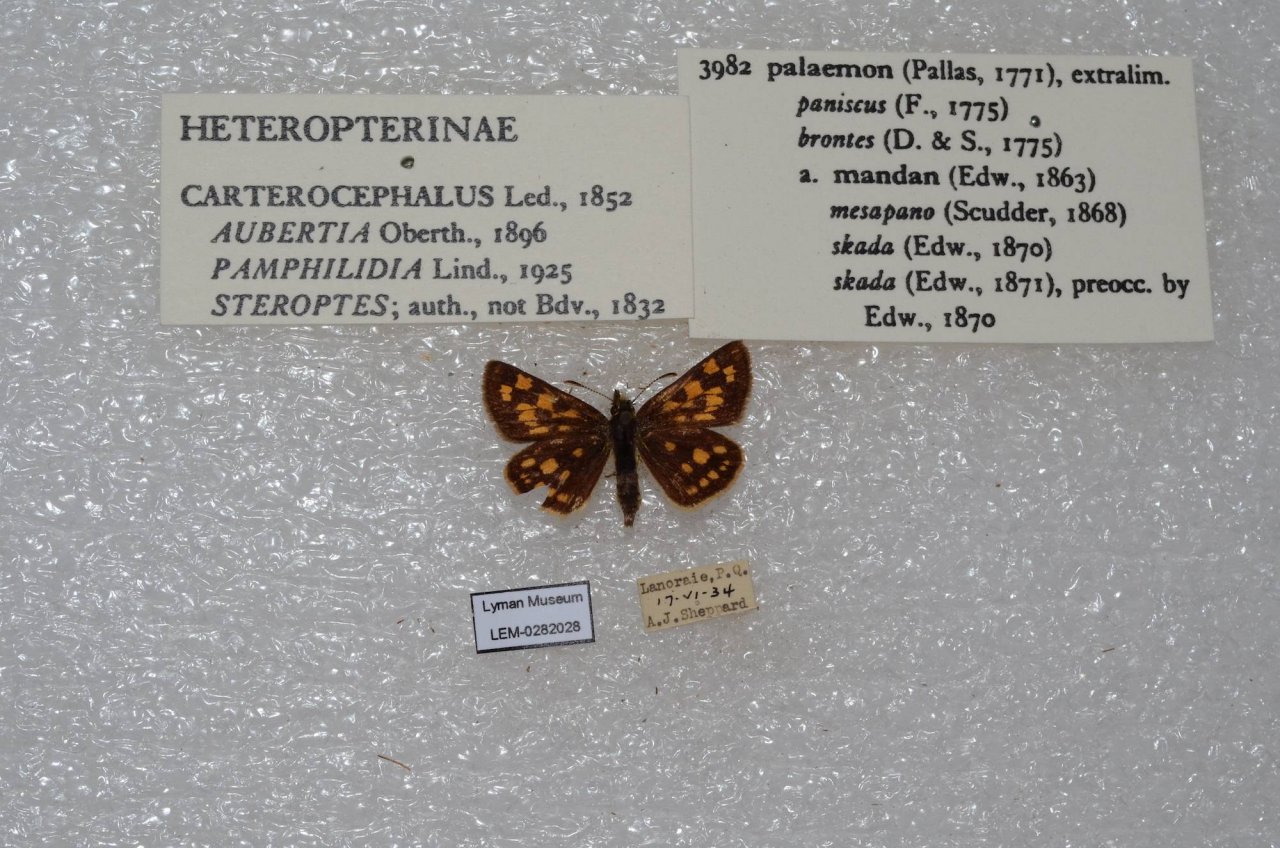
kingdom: Animalia
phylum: Arthropoda
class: Insecta
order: Lepidoptera
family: Hesperiidae
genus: Carterocephalus
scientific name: Carterocephalus palaemon
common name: Chequered Skipper
